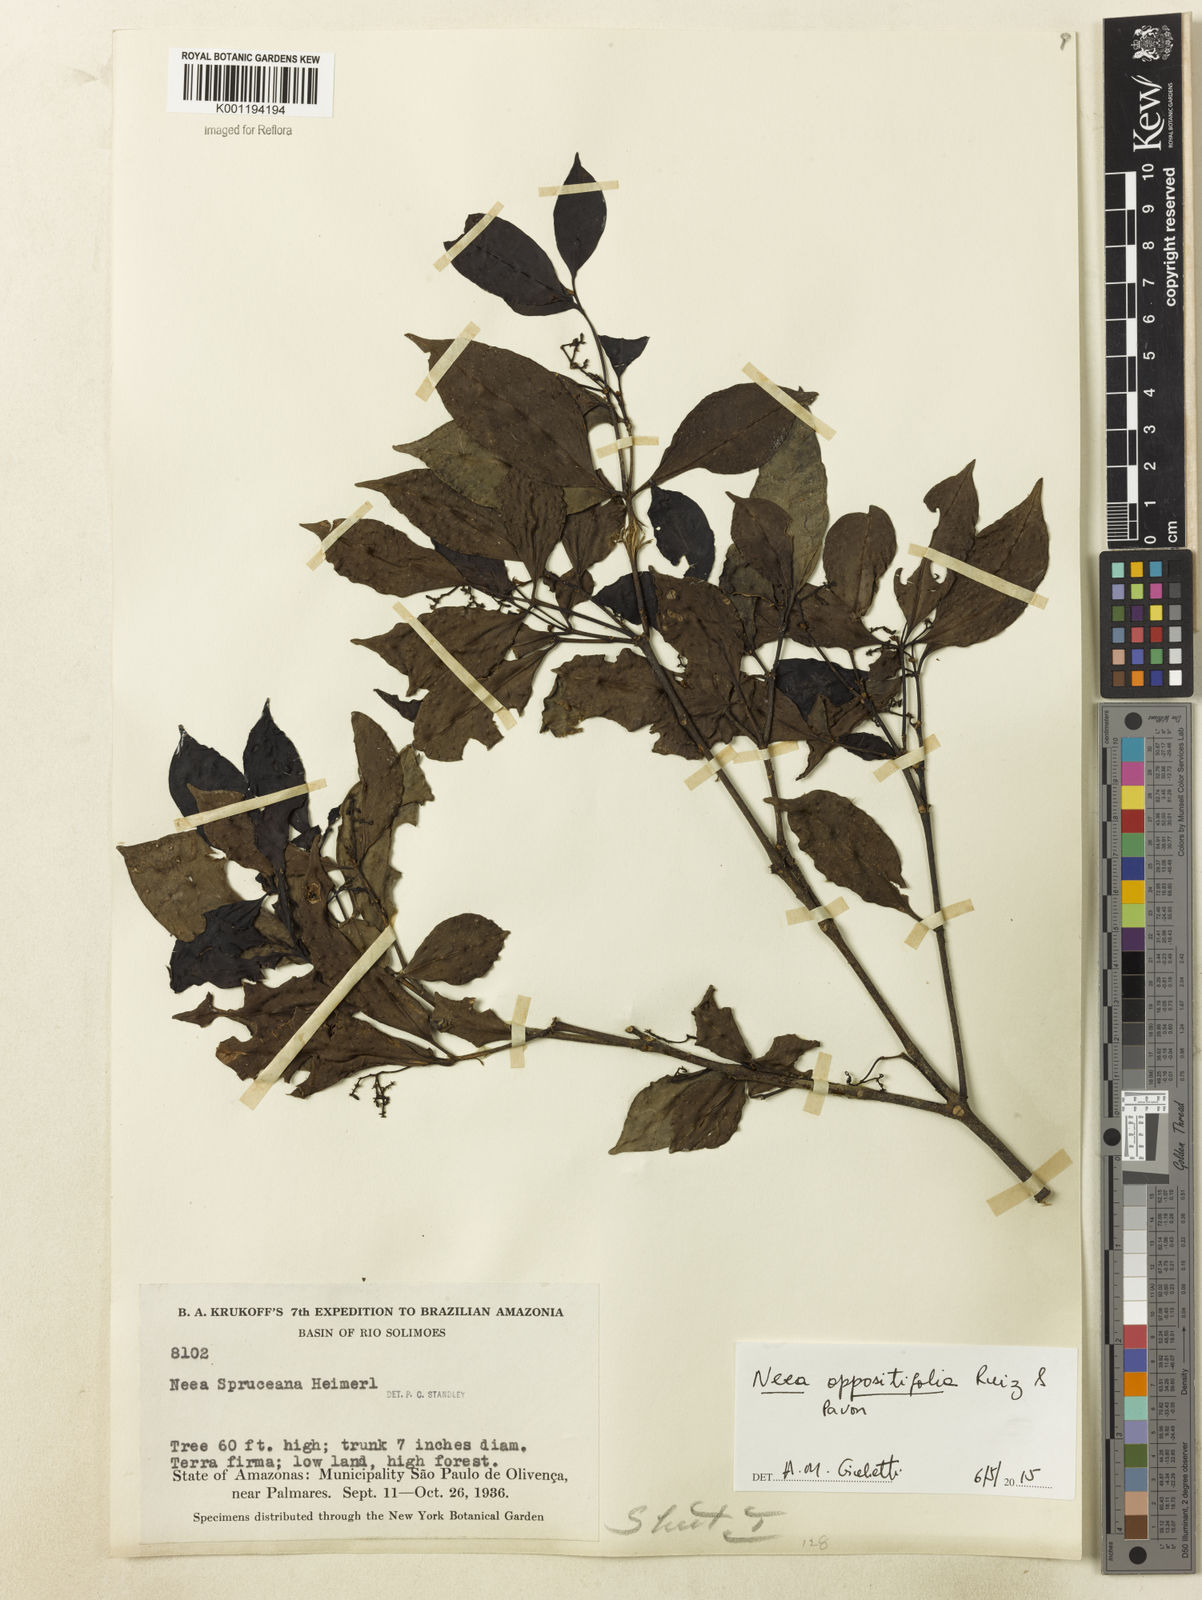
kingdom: Plantae
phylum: Tracheophyta
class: Magnoliopsida
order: Caryophyllales
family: Nyctaginaceae
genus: Neea
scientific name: Neea oppositifolia
